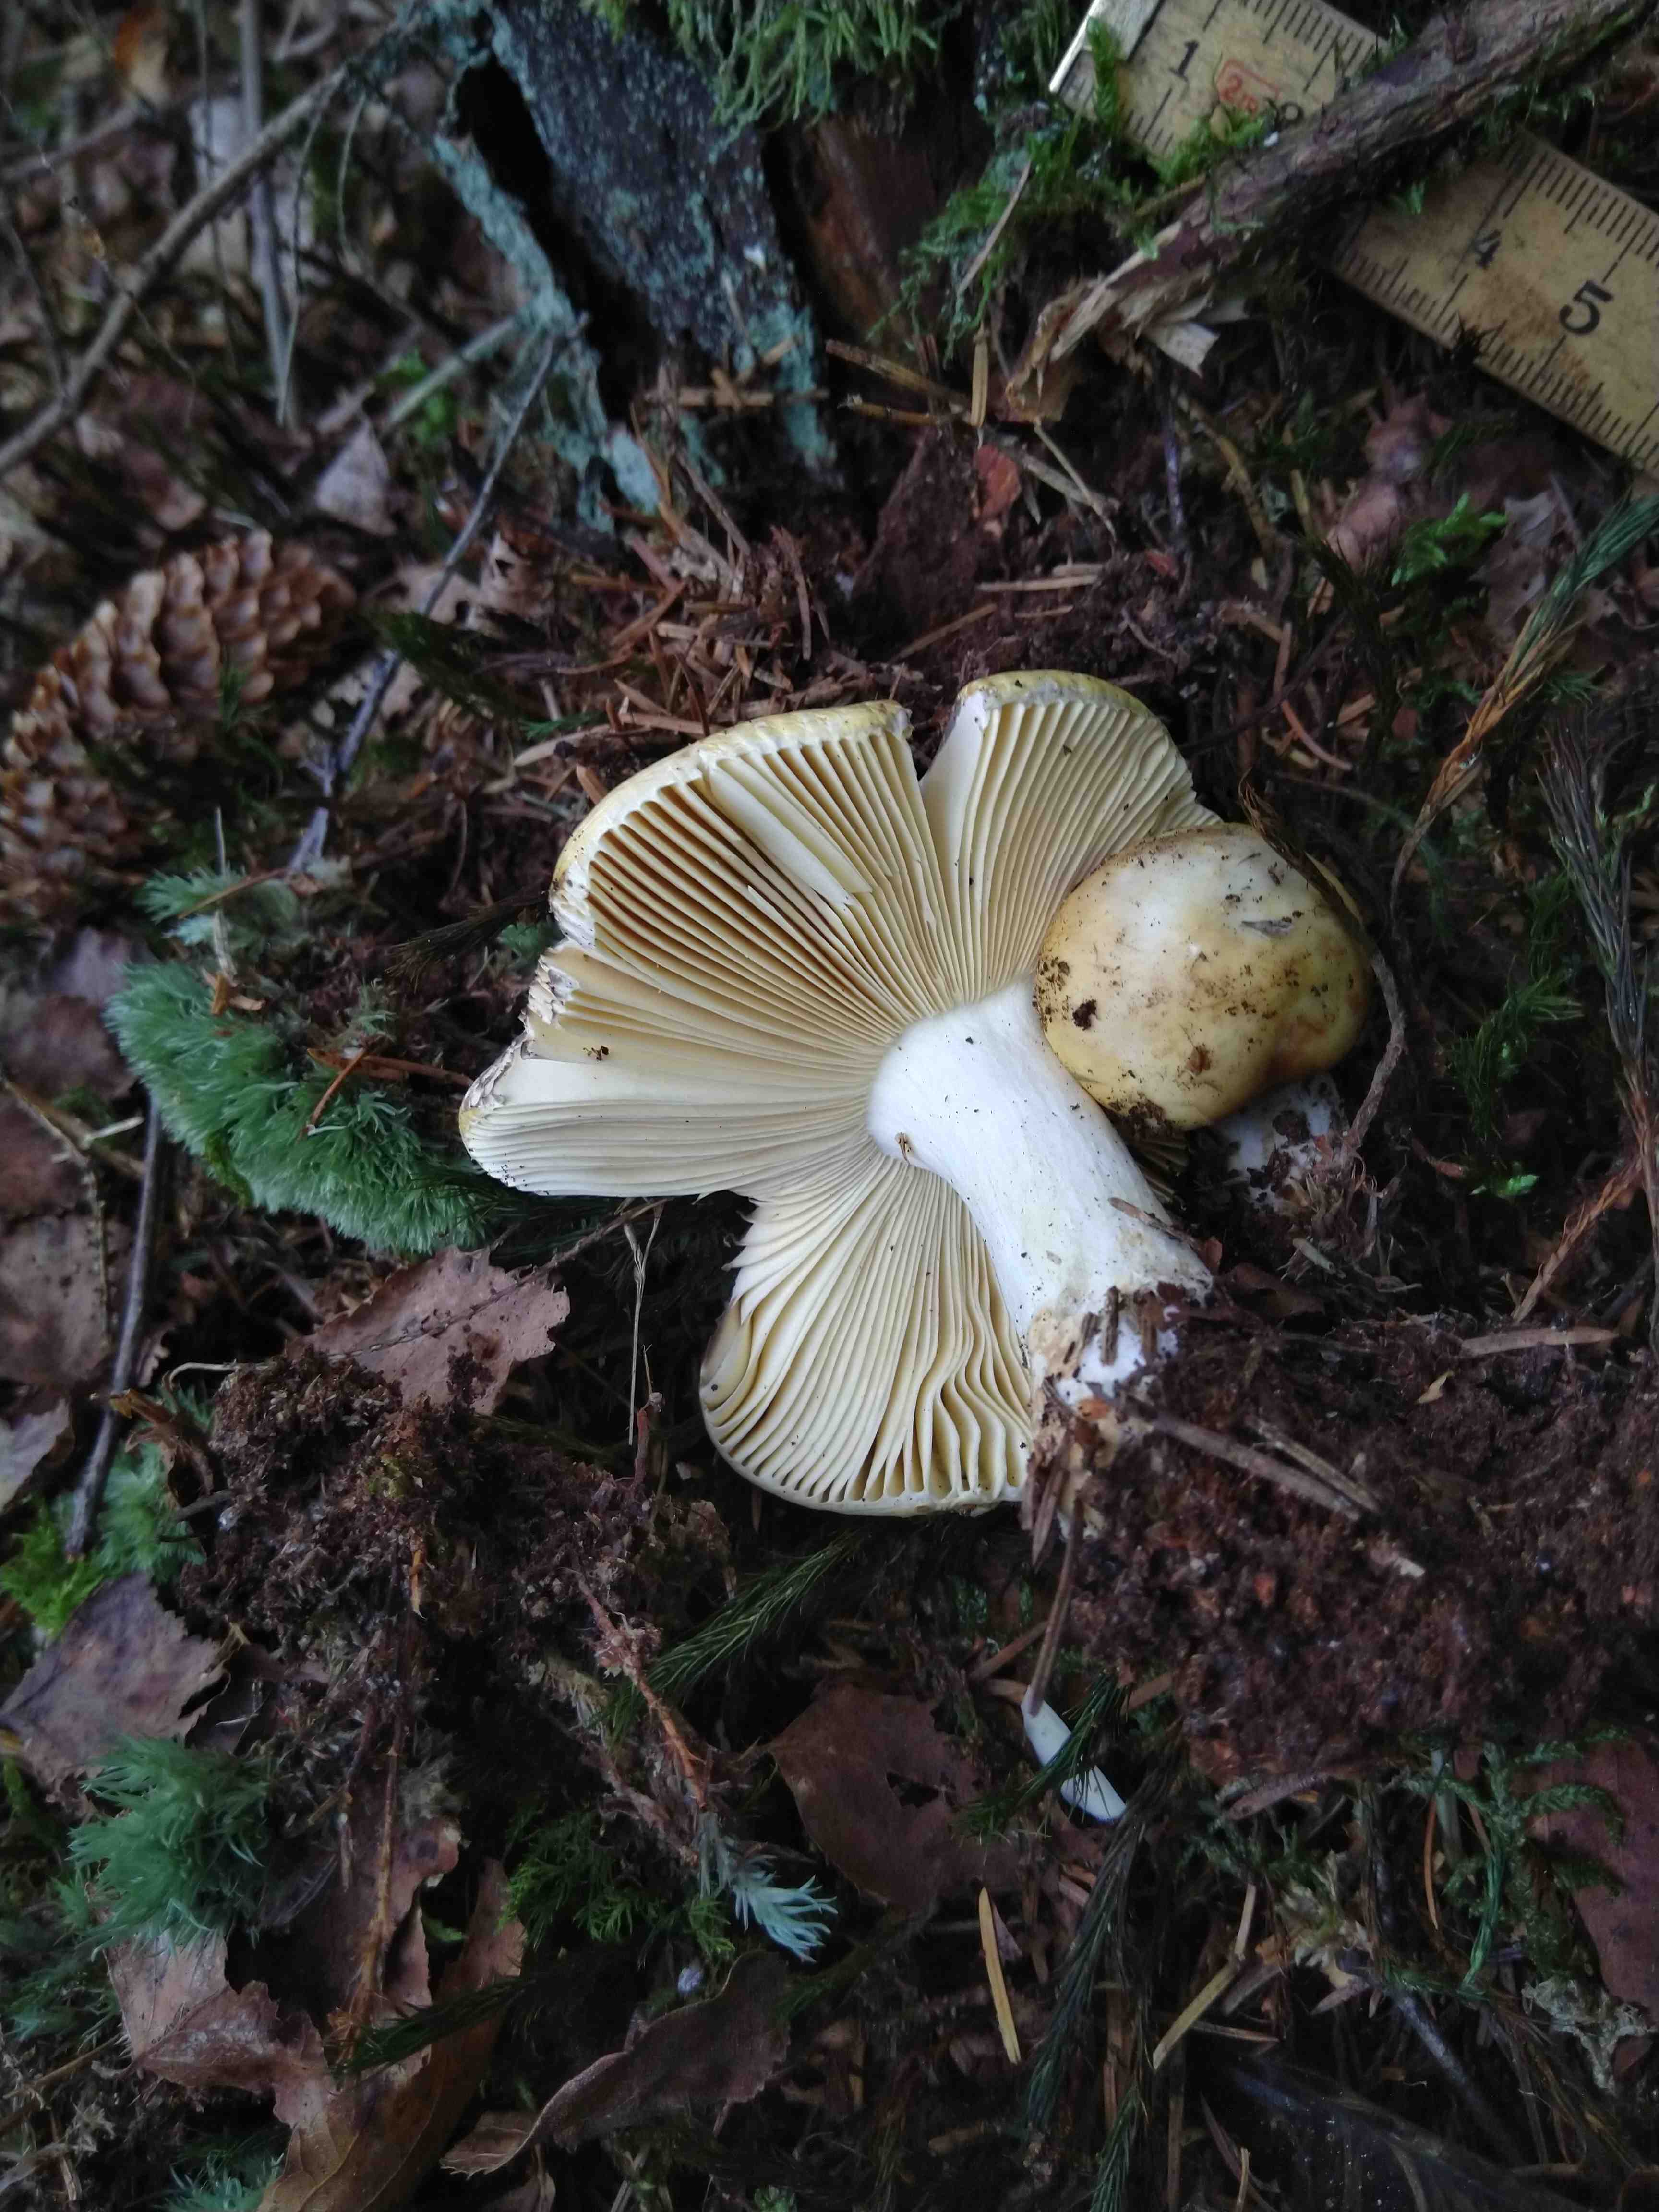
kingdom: Fungi
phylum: Basidiomycota
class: Agaricomycetes
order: Russulales
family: Russulaceae
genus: Russula
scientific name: Russula claroflava
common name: birke-skørhat
